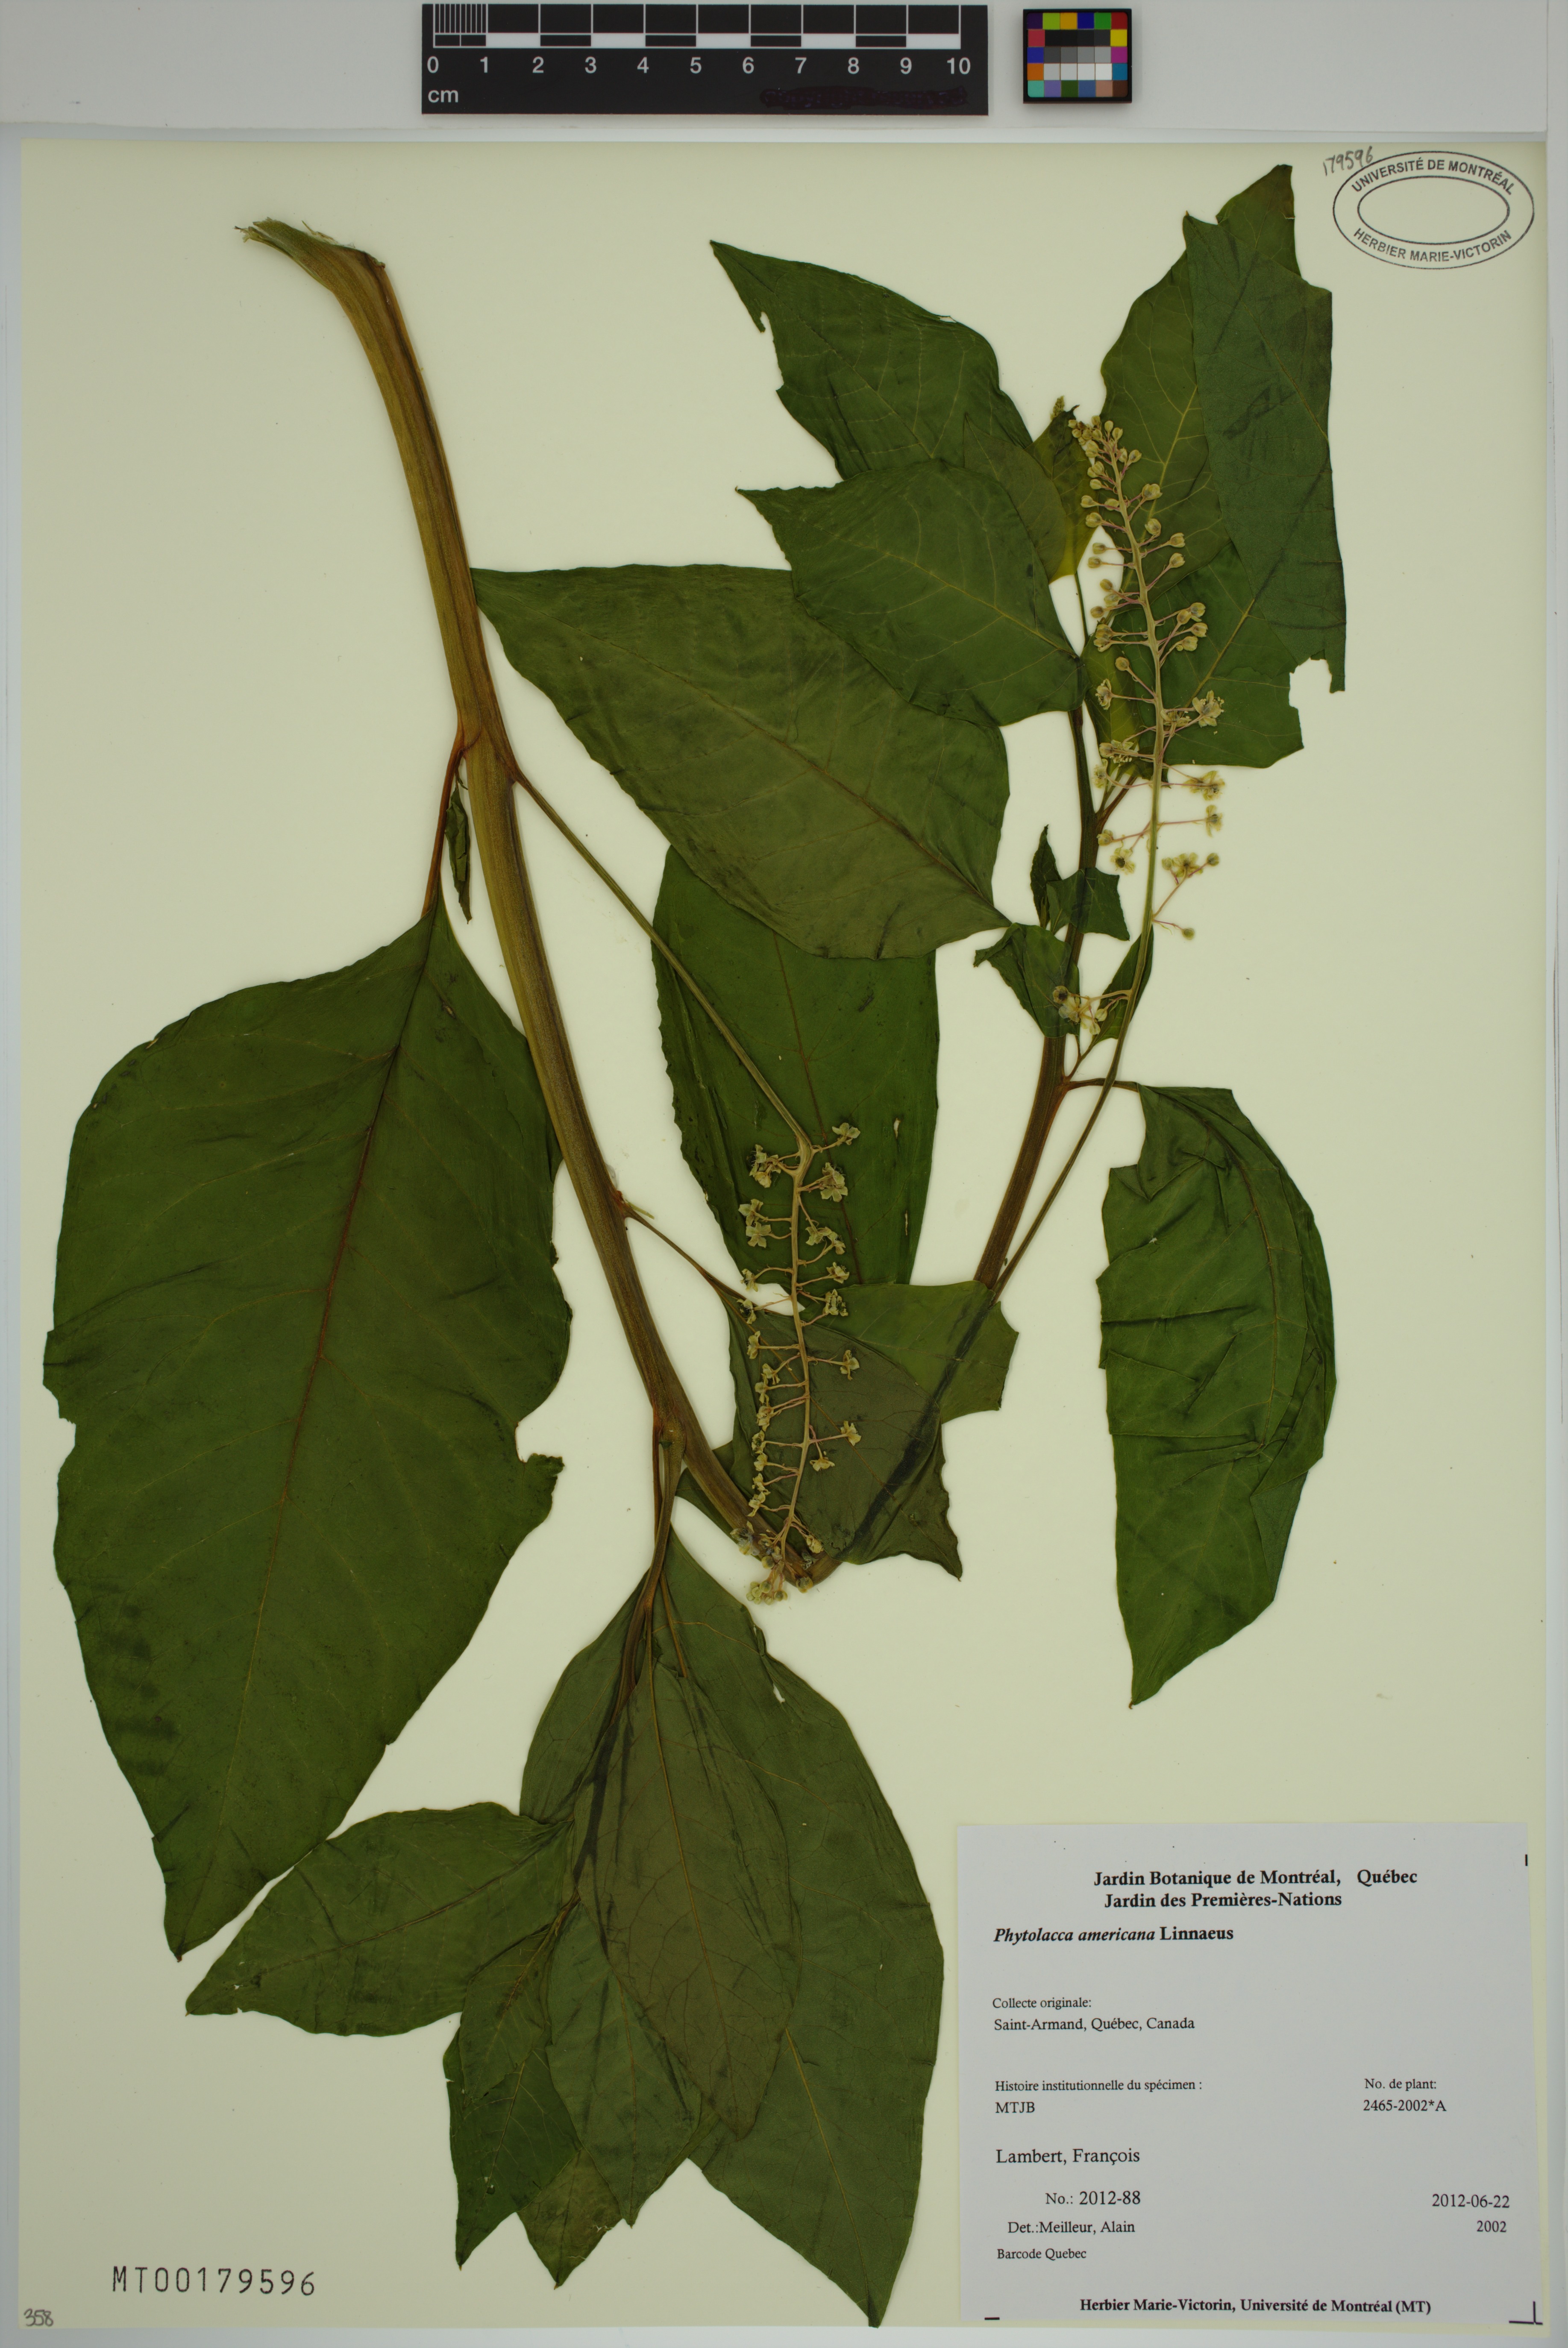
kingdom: Plantae
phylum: Tracheophyta
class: Magnoliopsida
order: Caryophyllales
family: Phytolaccaceae
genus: Phytolacca
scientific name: Phytolacca americana
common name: American pokeweed
